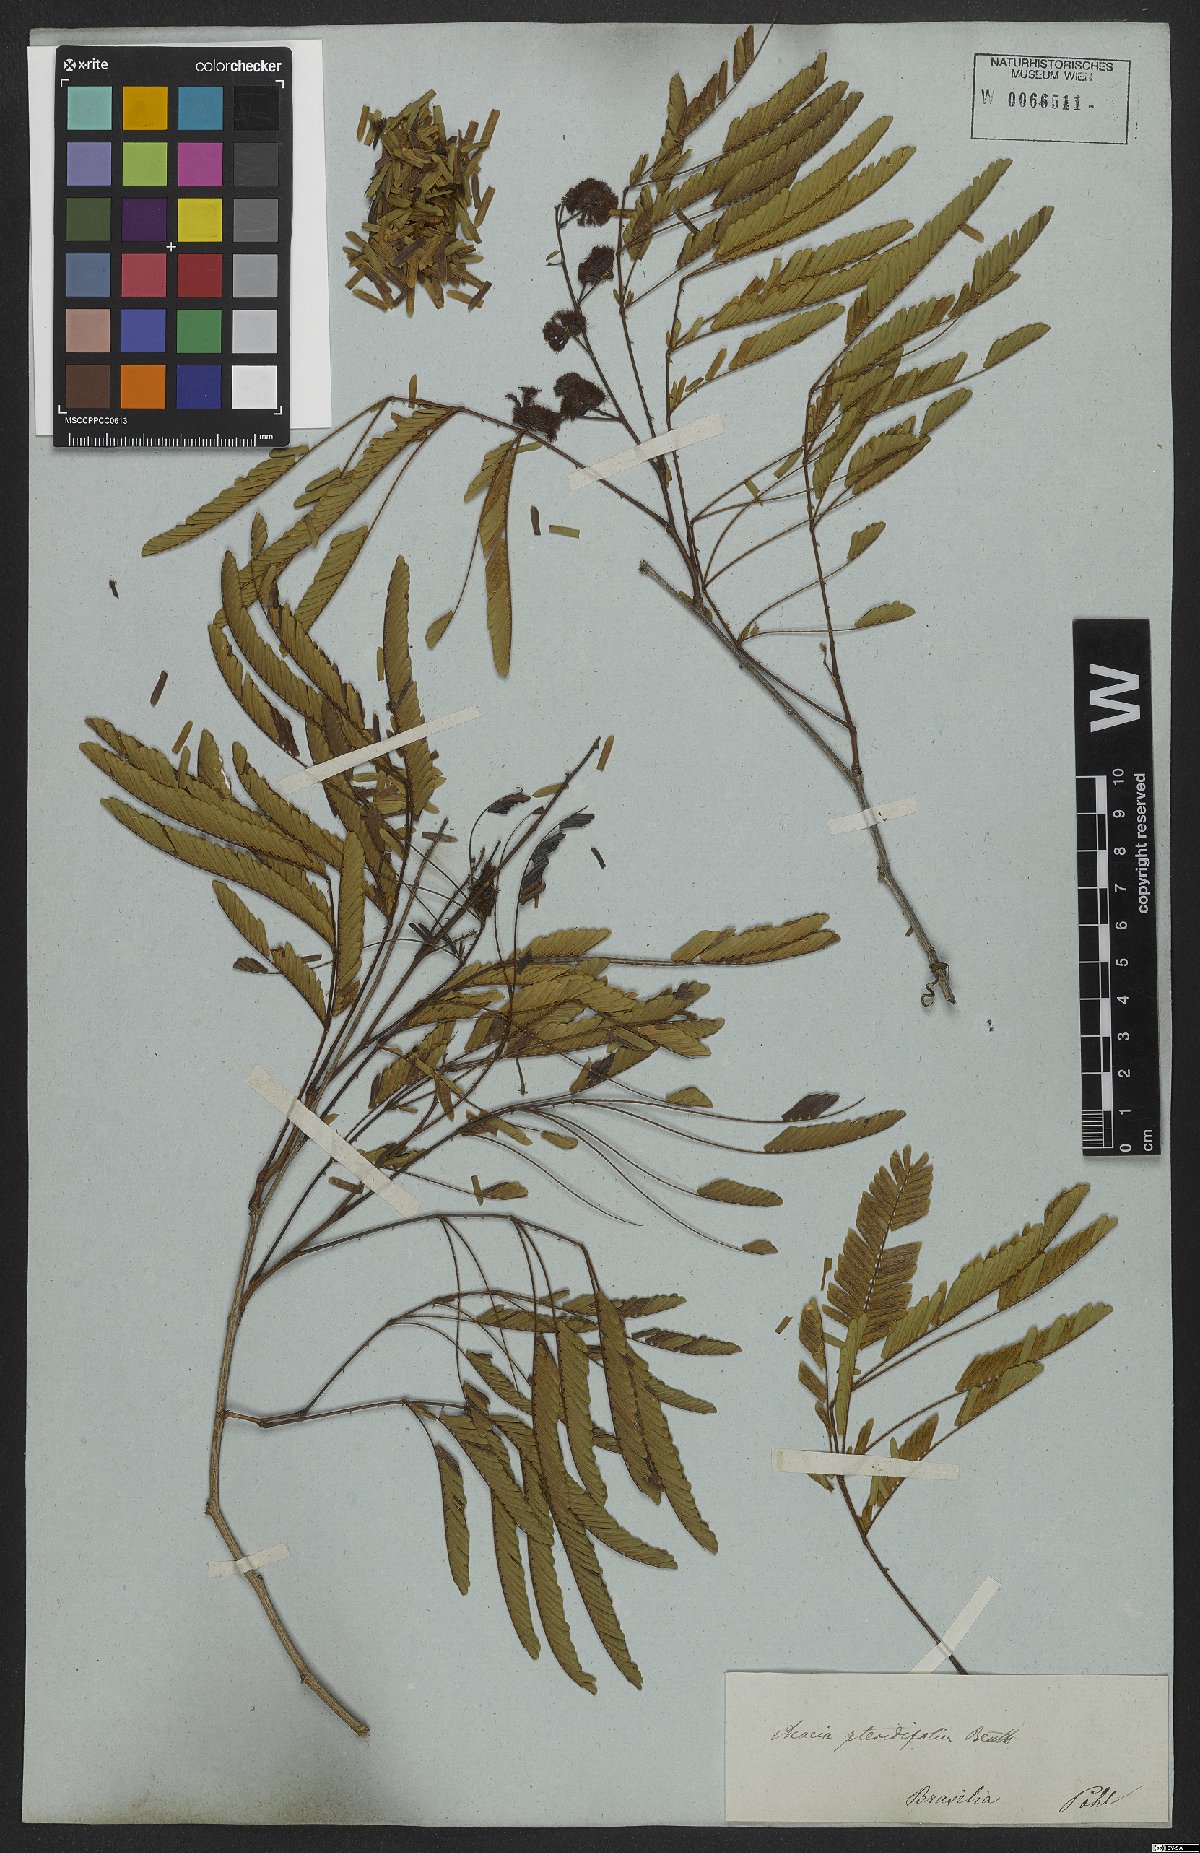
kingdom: Plantae
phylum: Tracheophyta
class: Magnoliopsida
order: Fabales
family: Fabaceae
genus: Senegalia
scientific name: Senegalia pteridifolia
